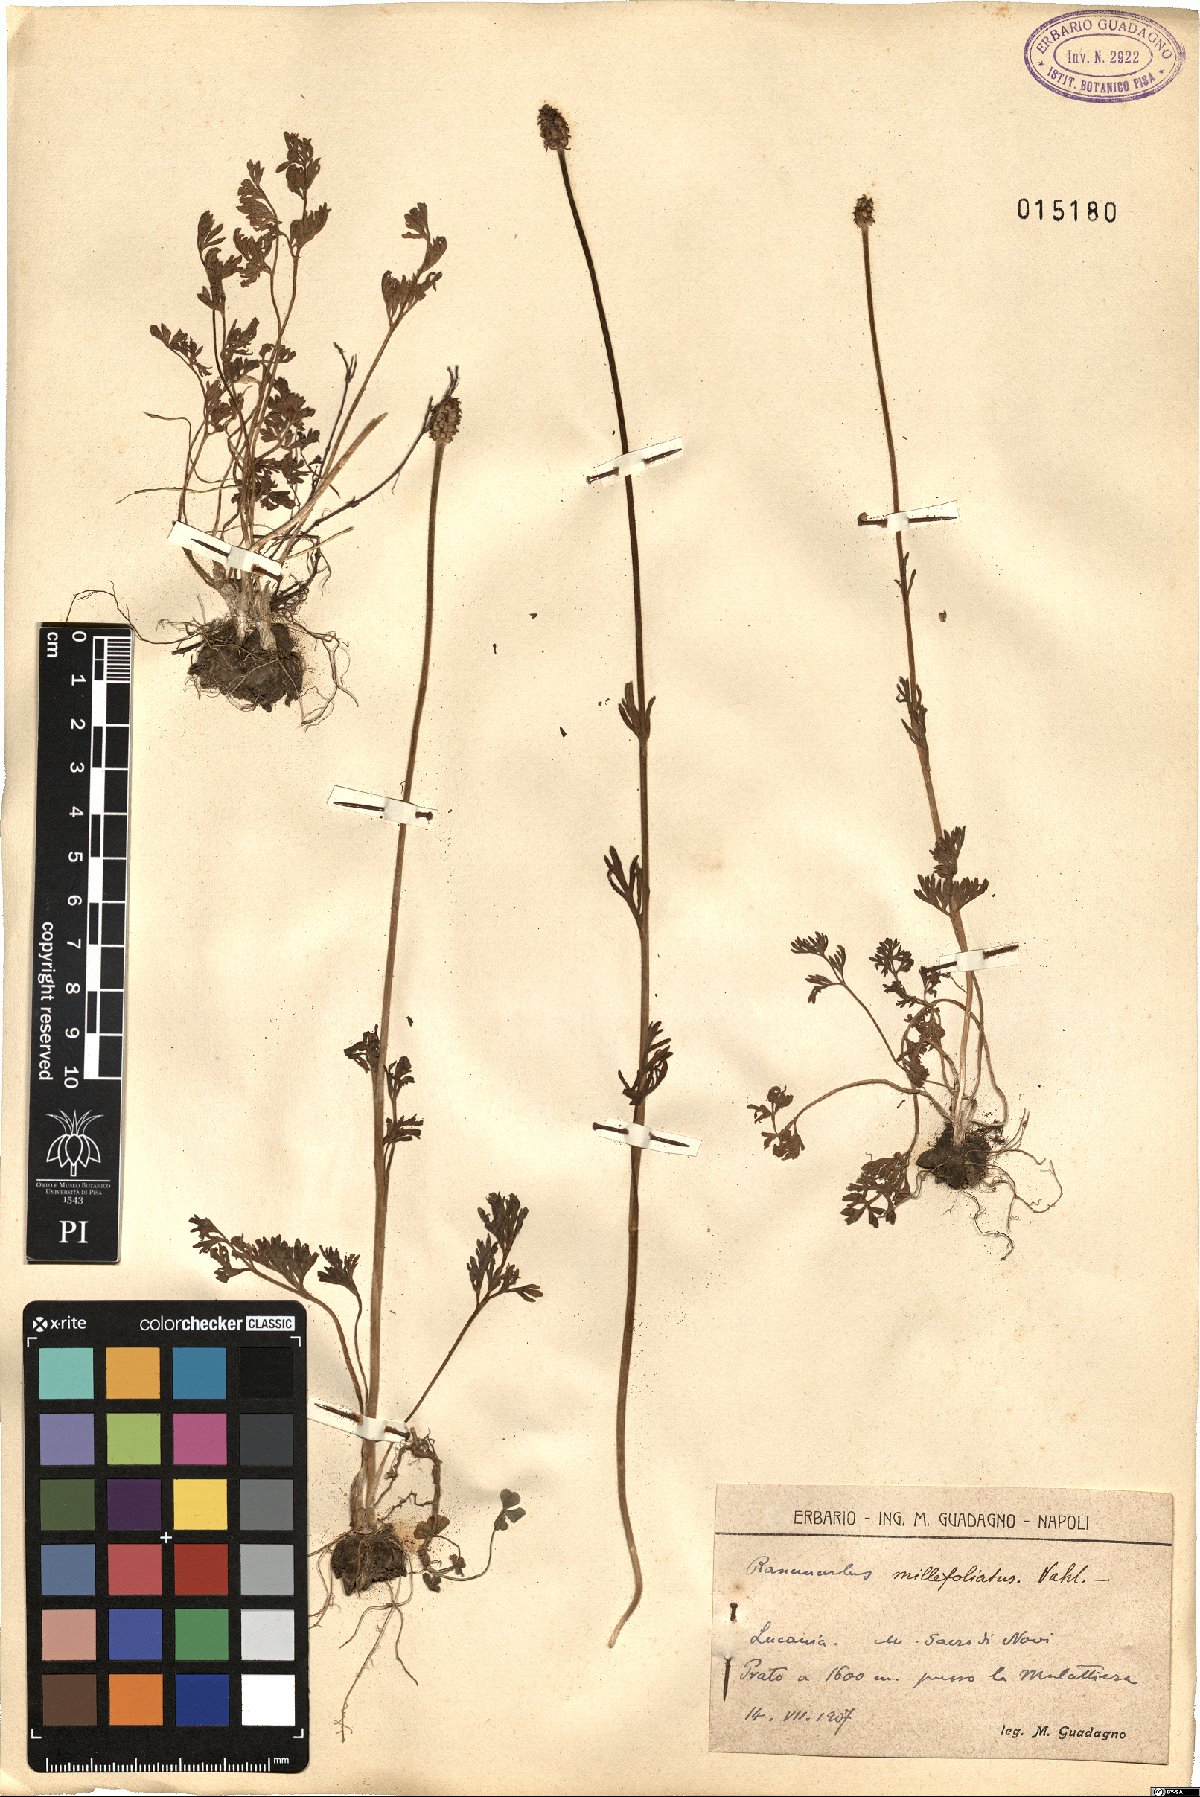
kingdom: Plantae
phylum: Tracheophyta
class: Magnoliopsida
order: Ranunculales
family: Ranunculaceae
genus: Ranunculus
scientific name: Ranunculus millefoliatus
